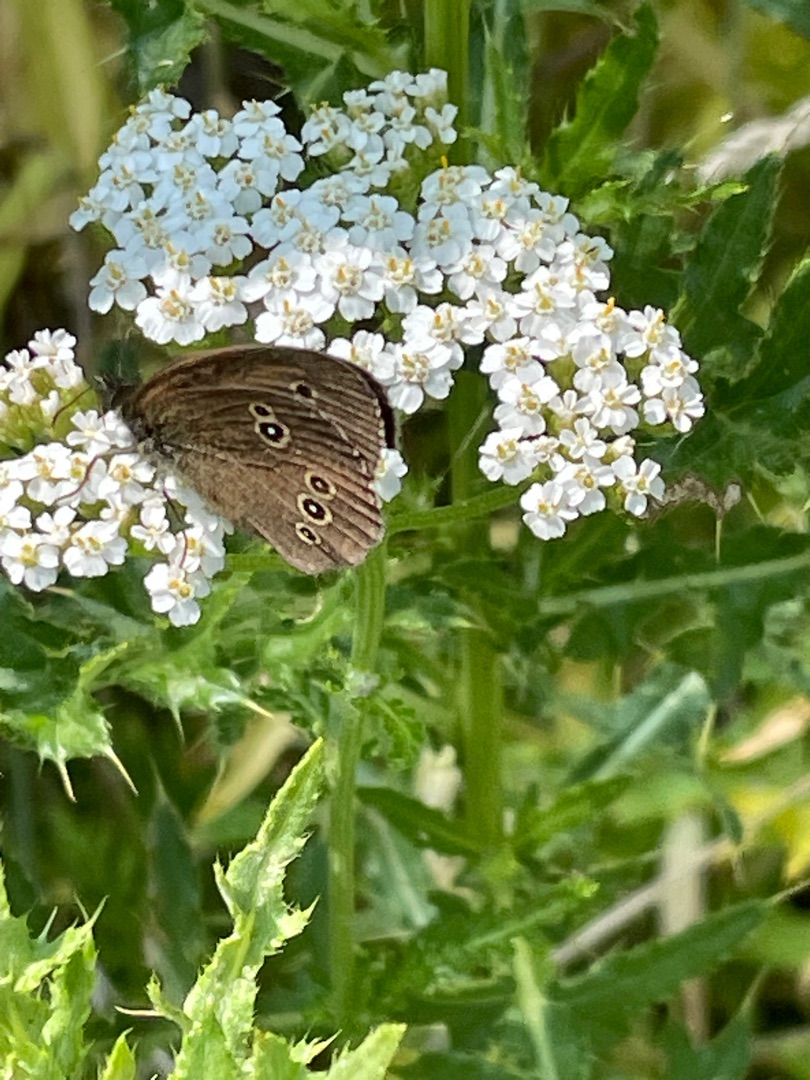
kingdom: Animalia
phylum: Arthropoda
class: Insecta
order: Lepidoptera
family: Nymphalidae
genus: Aphantopus
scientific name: Aphantopus hyperantus
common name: Engrandøje
